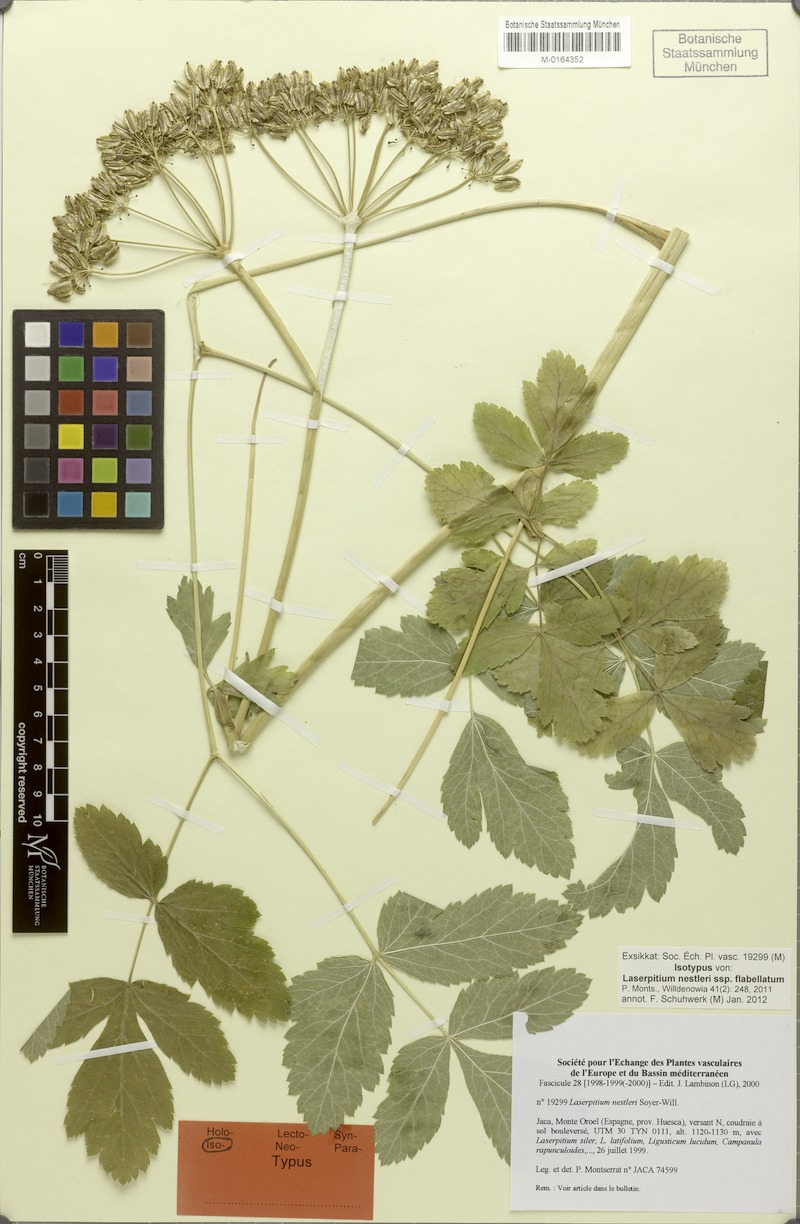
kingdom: Plantae
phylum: Tracheophyta
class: Magnoliopsida
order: Apiales
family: Apiaceae
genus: Thapsia
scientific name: Thapsia nestleri
